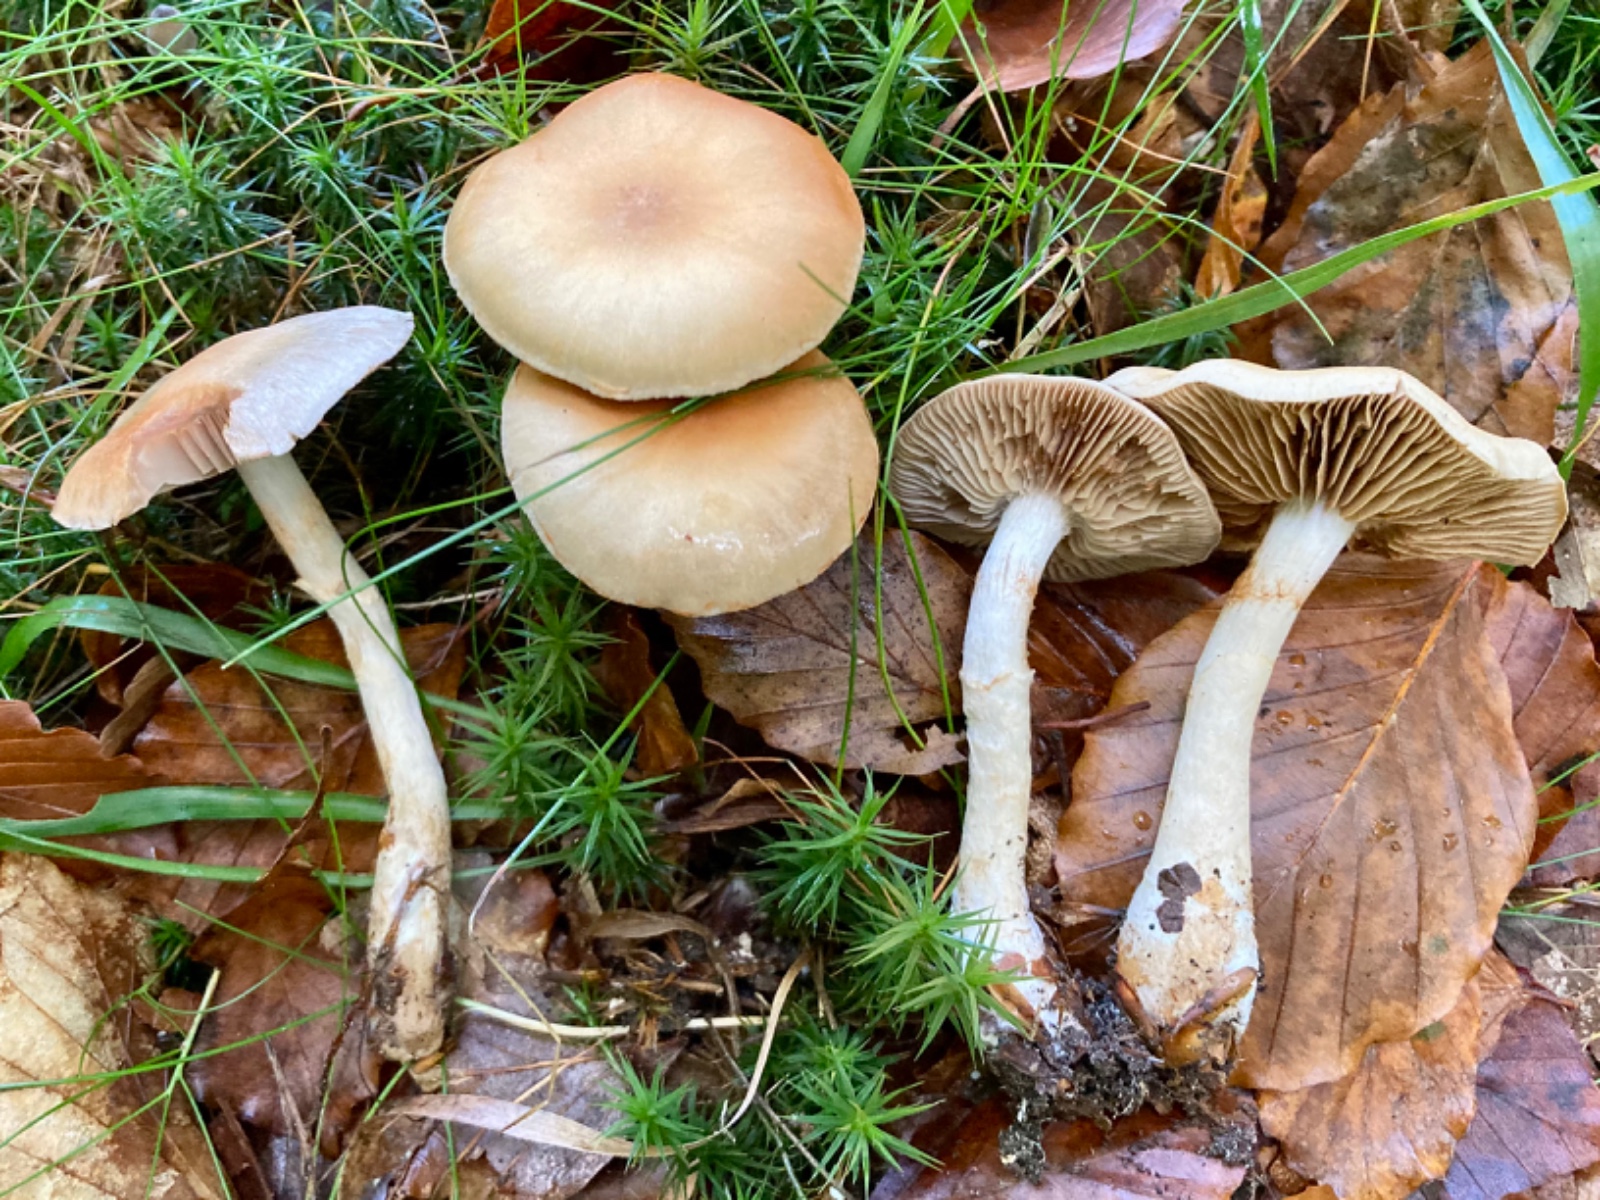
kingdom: Fungi
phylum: Basidiomycota
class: Agaricomycetes
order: Agaricales
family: Cortinariaceae
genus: Cortinarius
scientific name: Cortinarius anomalus
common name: Variable webcap
